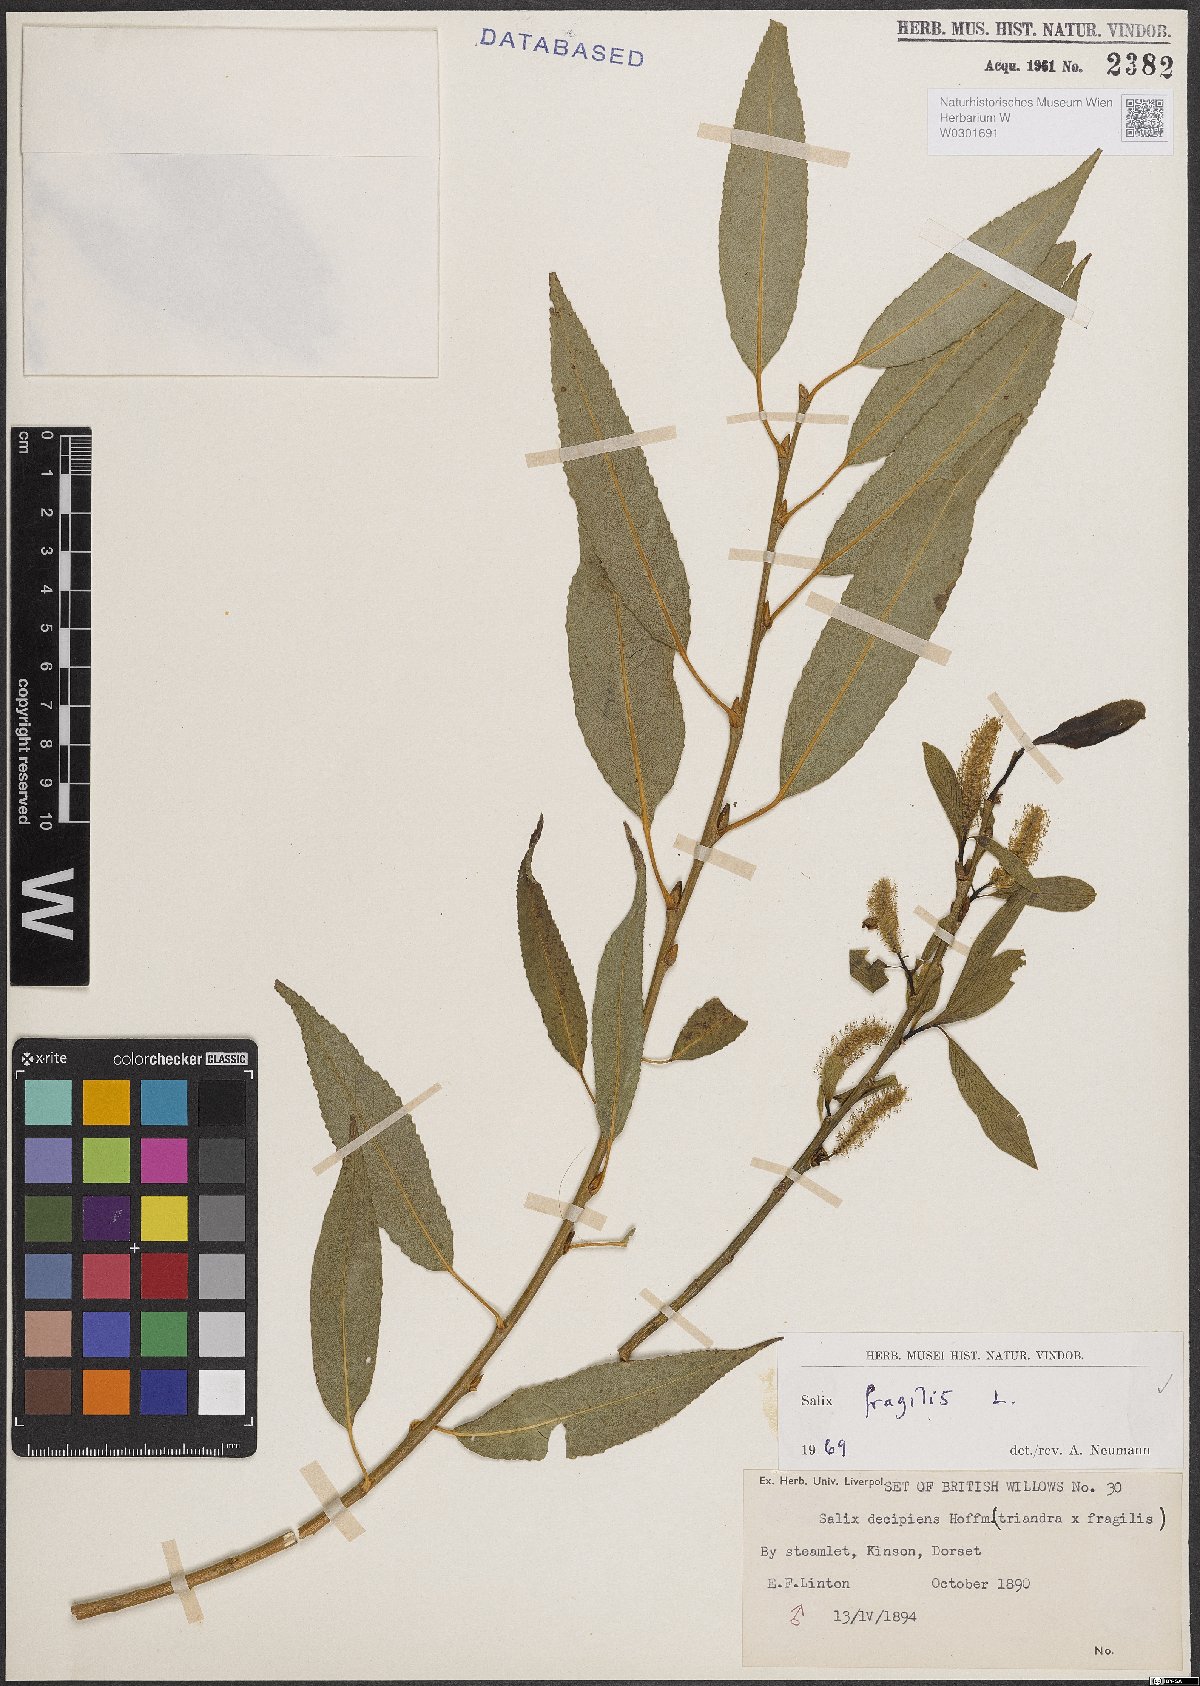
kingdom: Plantae
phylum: Tracheophyta
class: Magnoliopsida
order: Malpighiales
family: Salicaceae
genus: Salix
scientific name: Salix fragilis
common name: Crack willow
